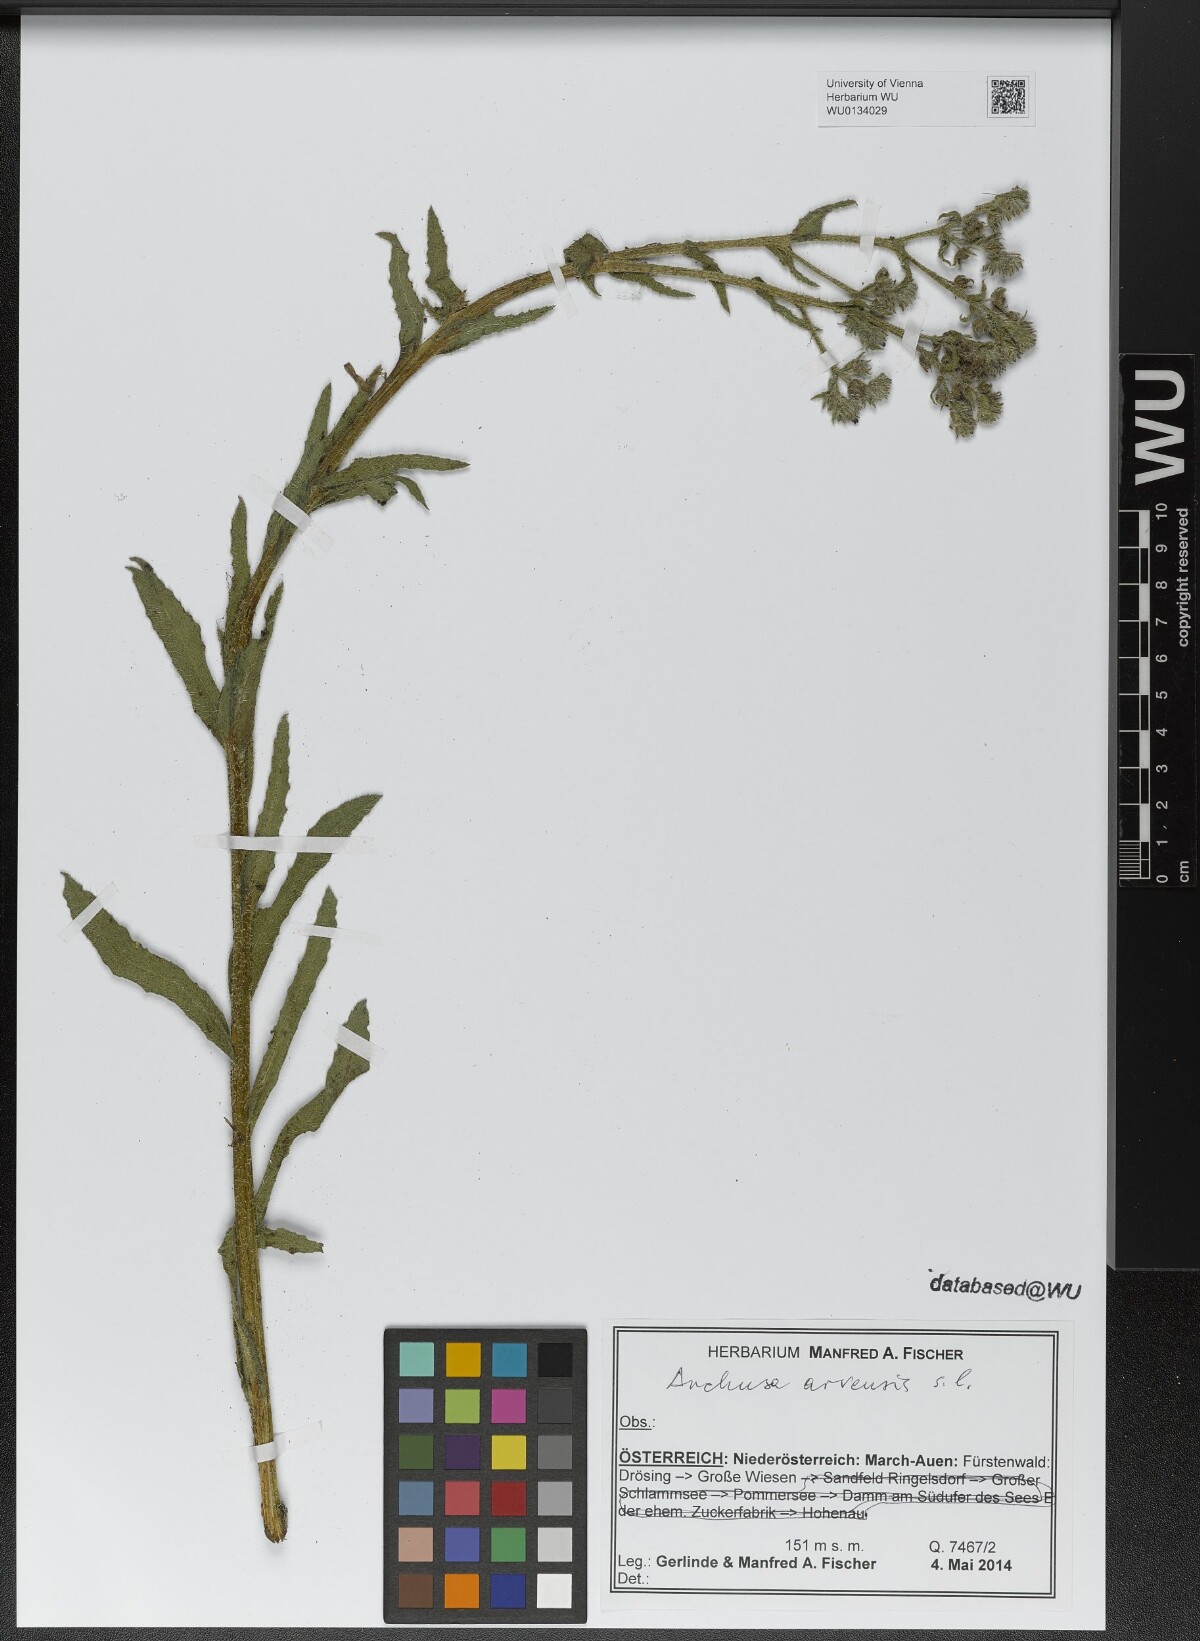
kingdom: Plantae
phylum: Tracheophyta
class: Magnoliopsida
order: Boraginales
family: Boraginaceae
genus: Lycopsis
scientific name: Lycopsis arvensis
